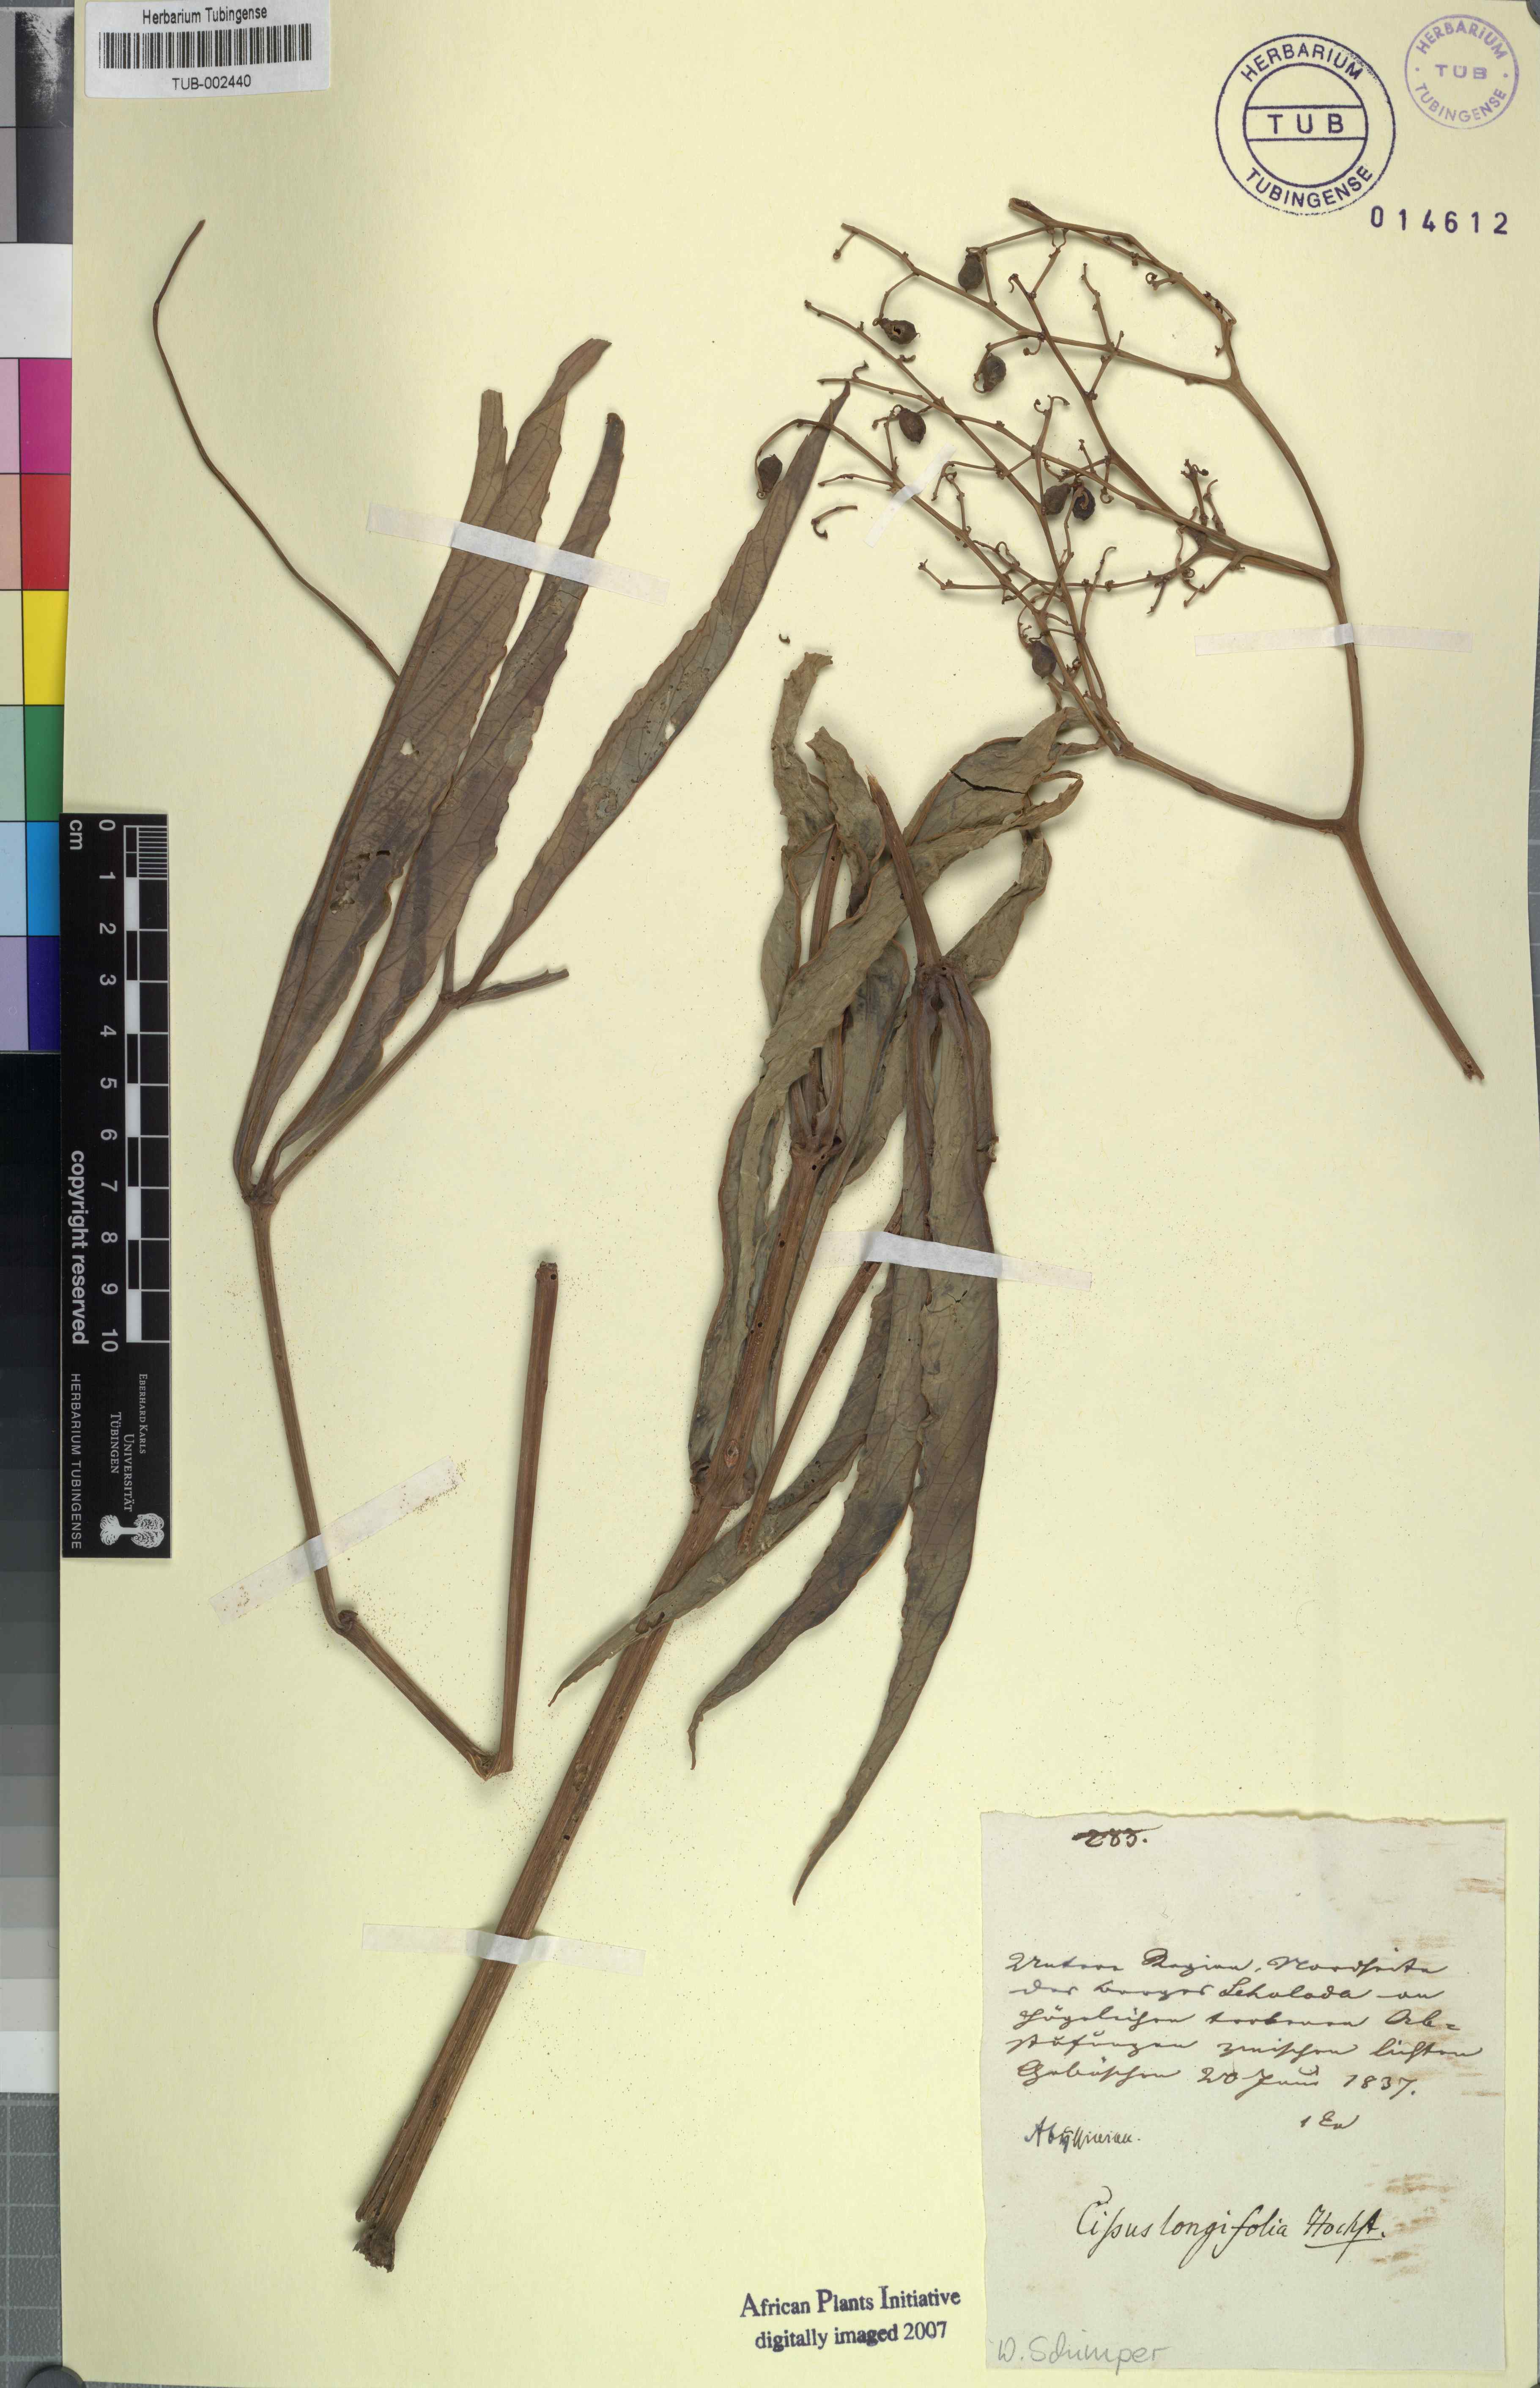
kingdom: Plantae
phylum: Tracheophyta
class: Magnoliopsida
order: Vitales
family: Vitaceae
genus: Cissus
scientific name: Cissus
